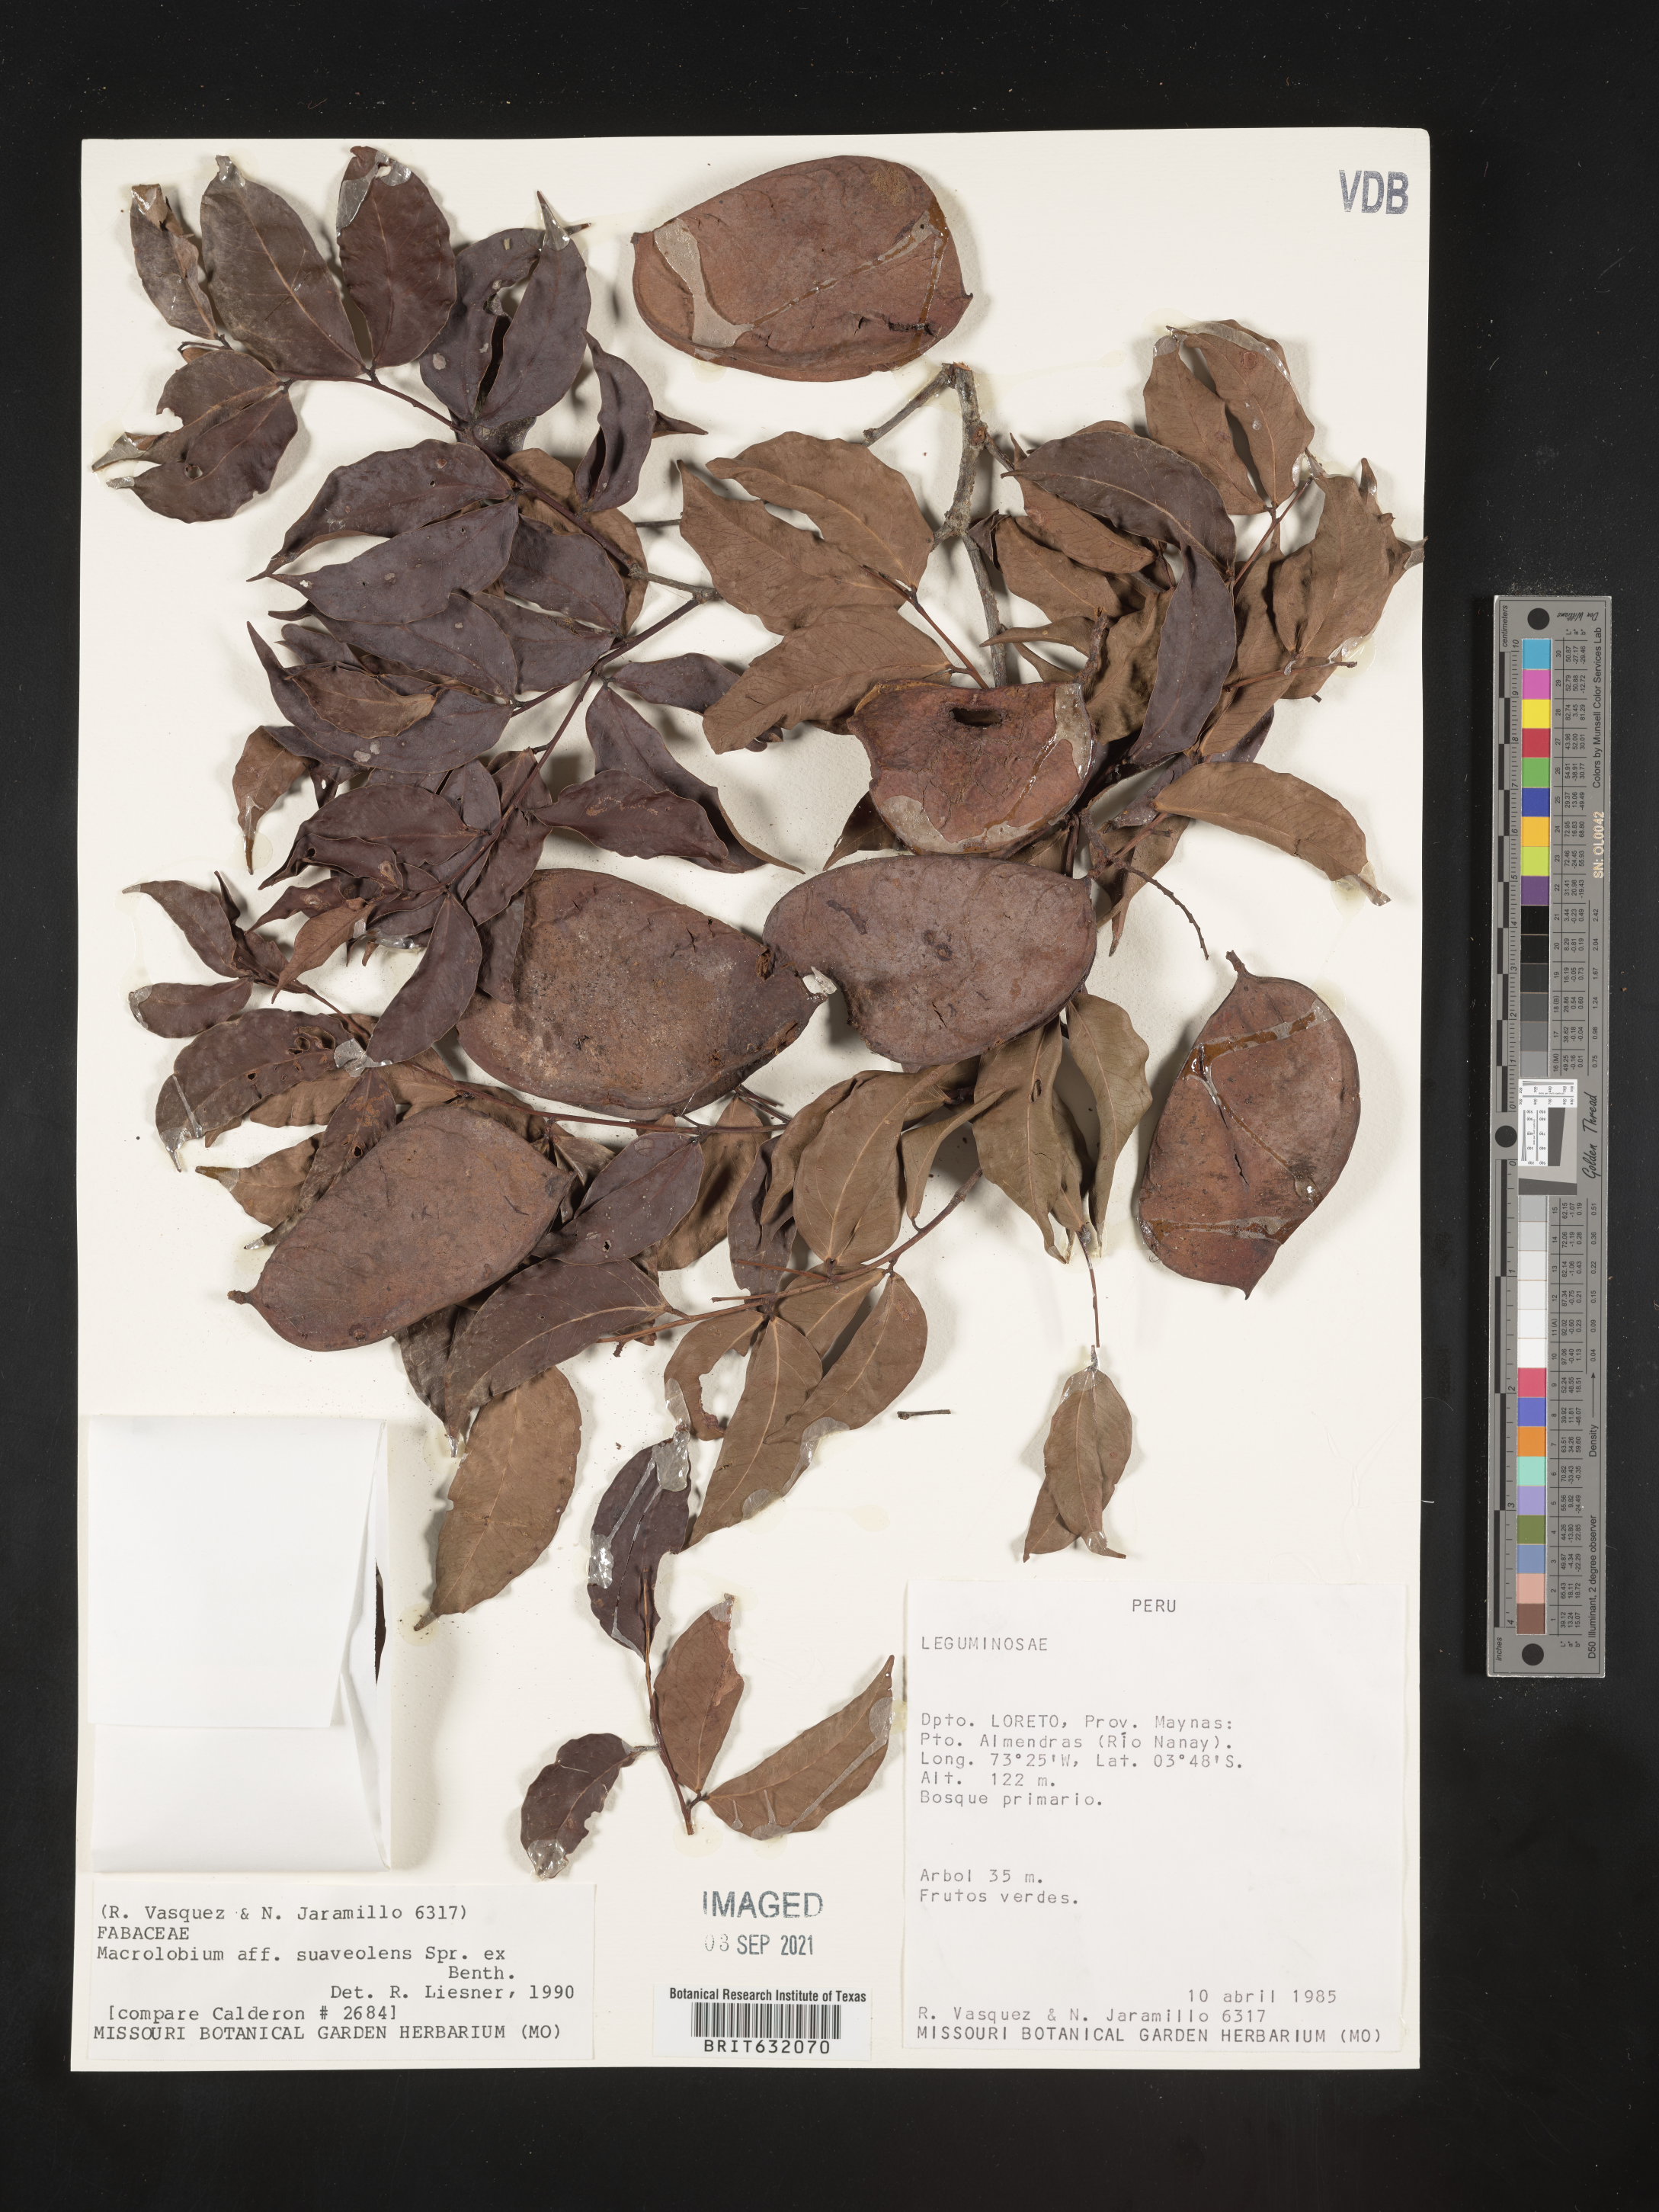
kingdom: Plantae
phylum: Tracheophyta
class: Magnoliopsida
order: Fabales
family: Fabaceae
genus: Macrolobium
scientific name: Macrolobium
